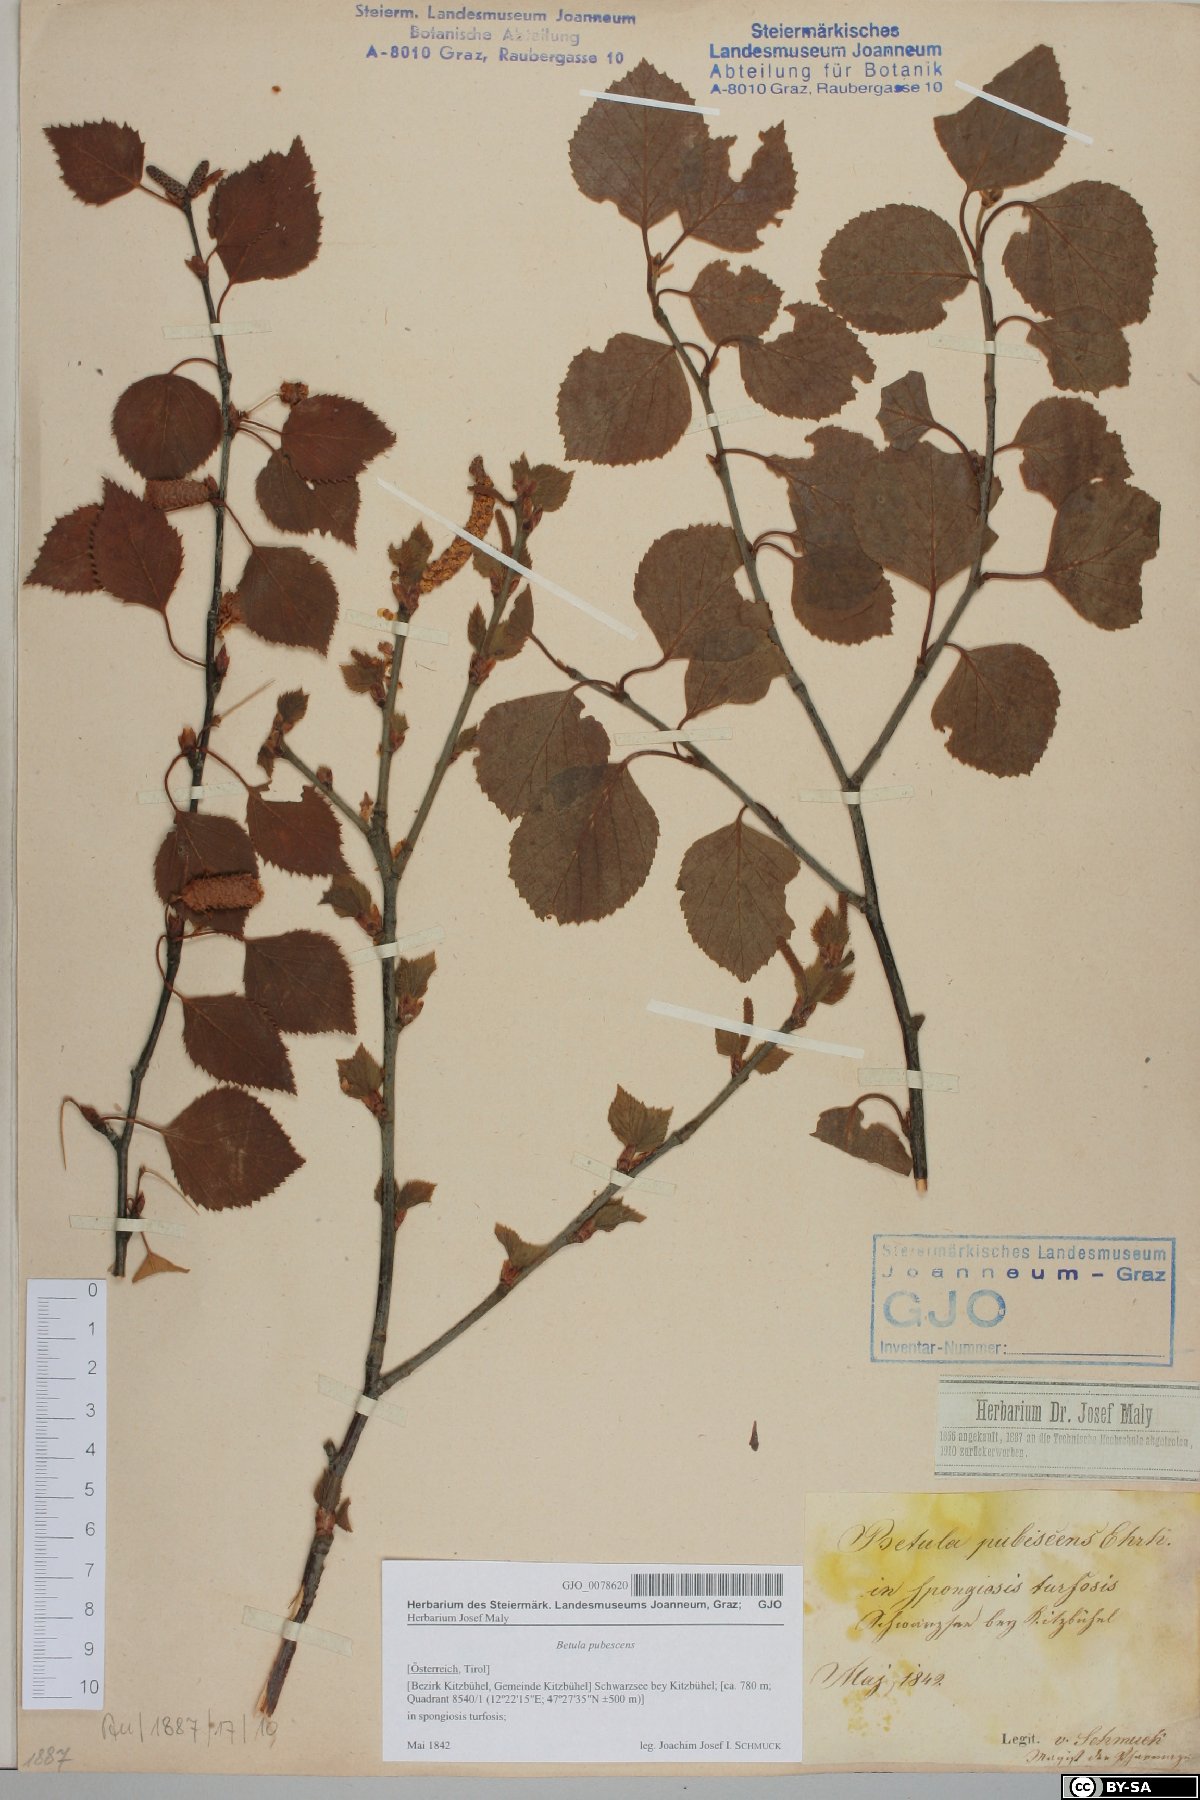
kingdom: Plantae
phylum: Tracheophyta
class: Magnoliopsida
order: Fagales
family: Betulaceae
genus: Betula
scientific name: Betula pubescens
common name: Downy birch
